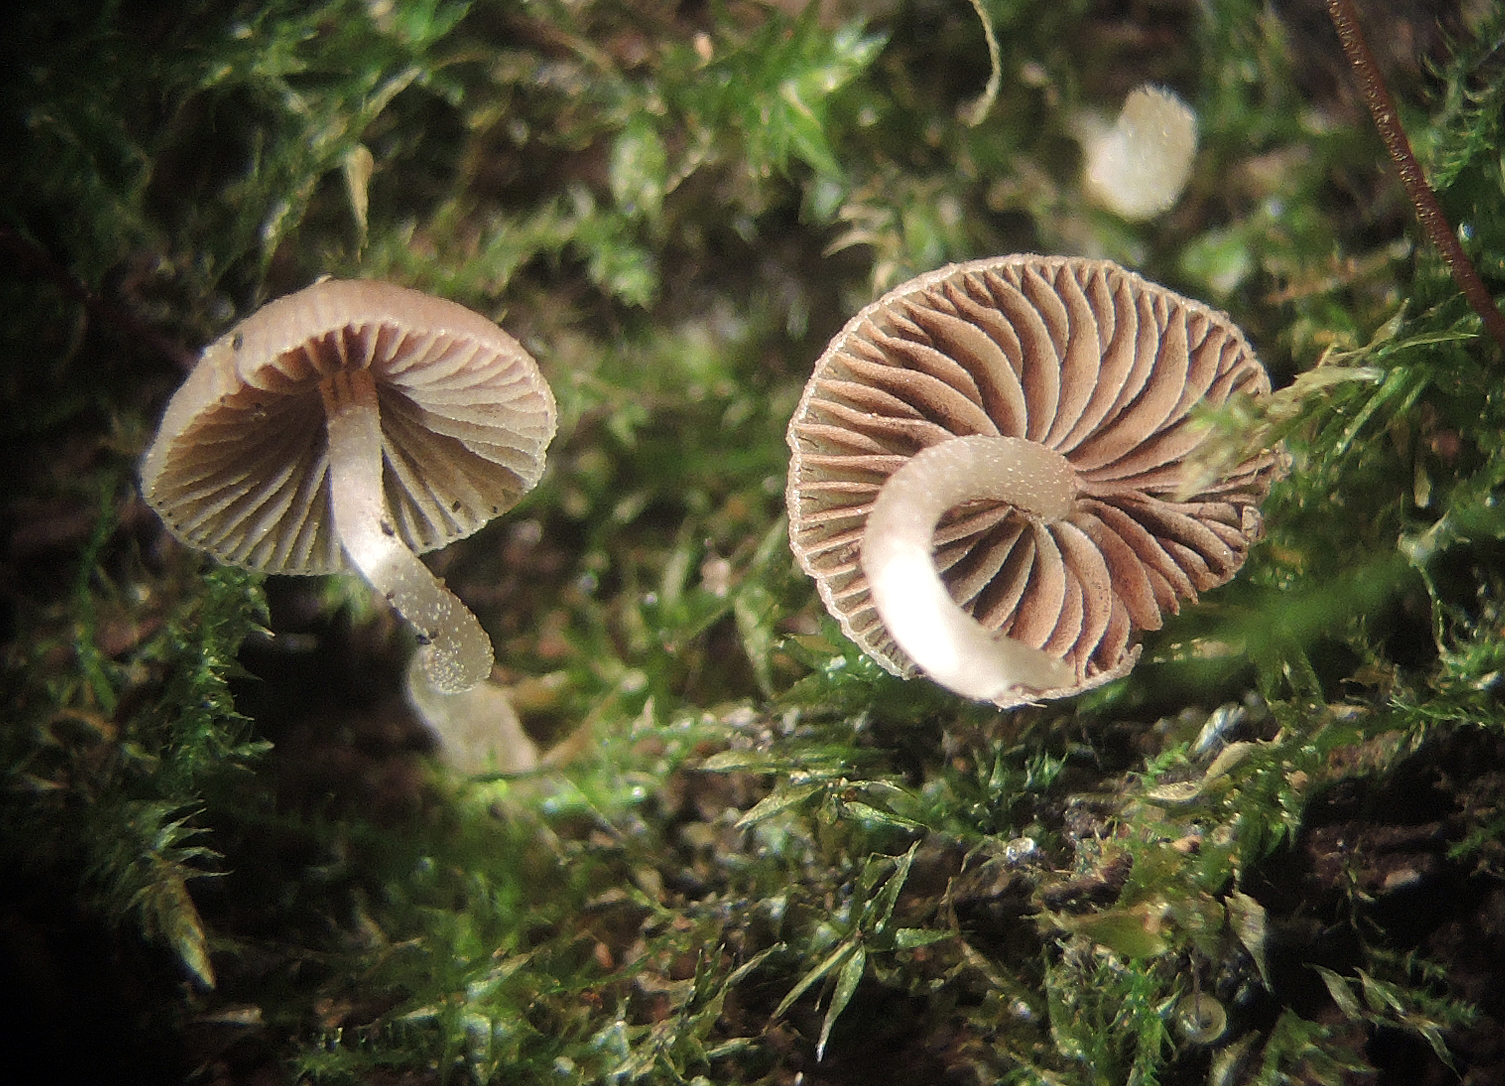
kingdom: Fungi
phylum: Basidiomycota
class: Agaricomycetes
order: Agaricales
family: Psathyrellaceae
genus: Psathyrella
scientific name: Psathyrella pygmaea
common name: dværg-mørkhat
